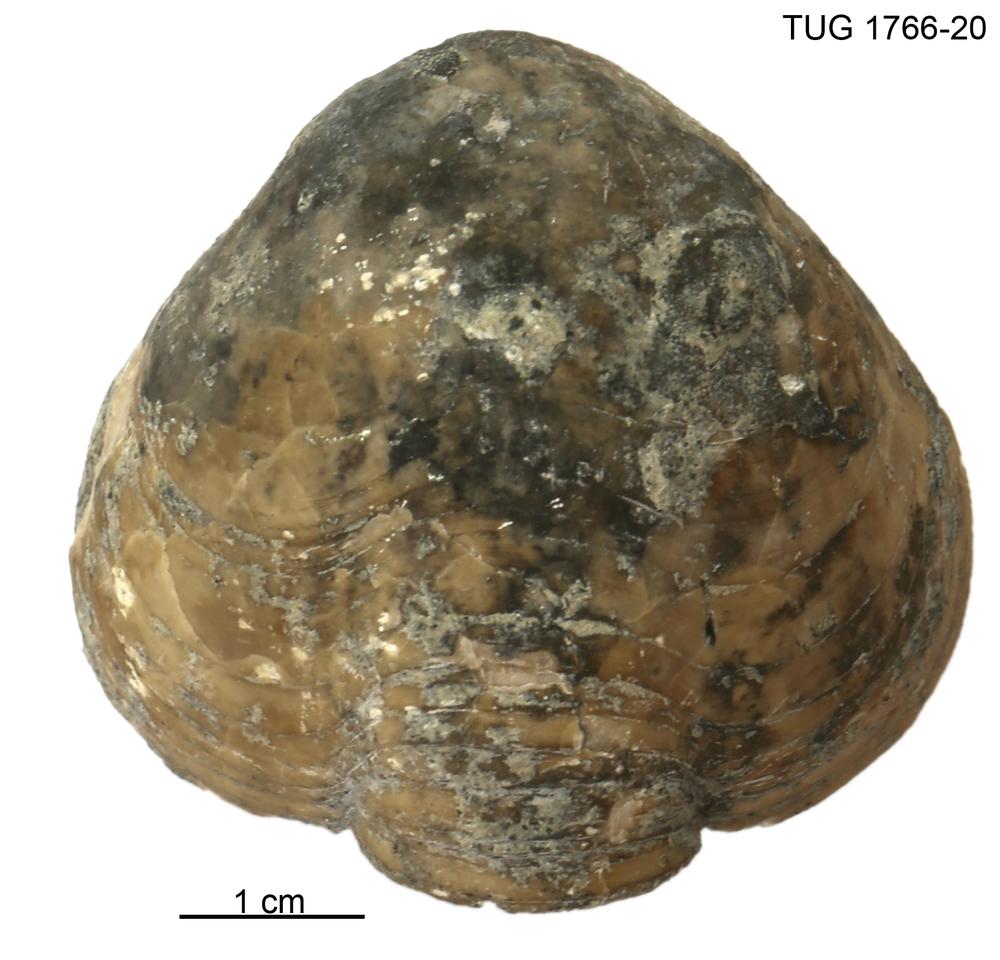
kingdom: Animalia
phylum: Brachiopoda
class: Rhynchonellata
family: Porambonitidae
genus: Porambonites
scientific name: Porambonites baueri
